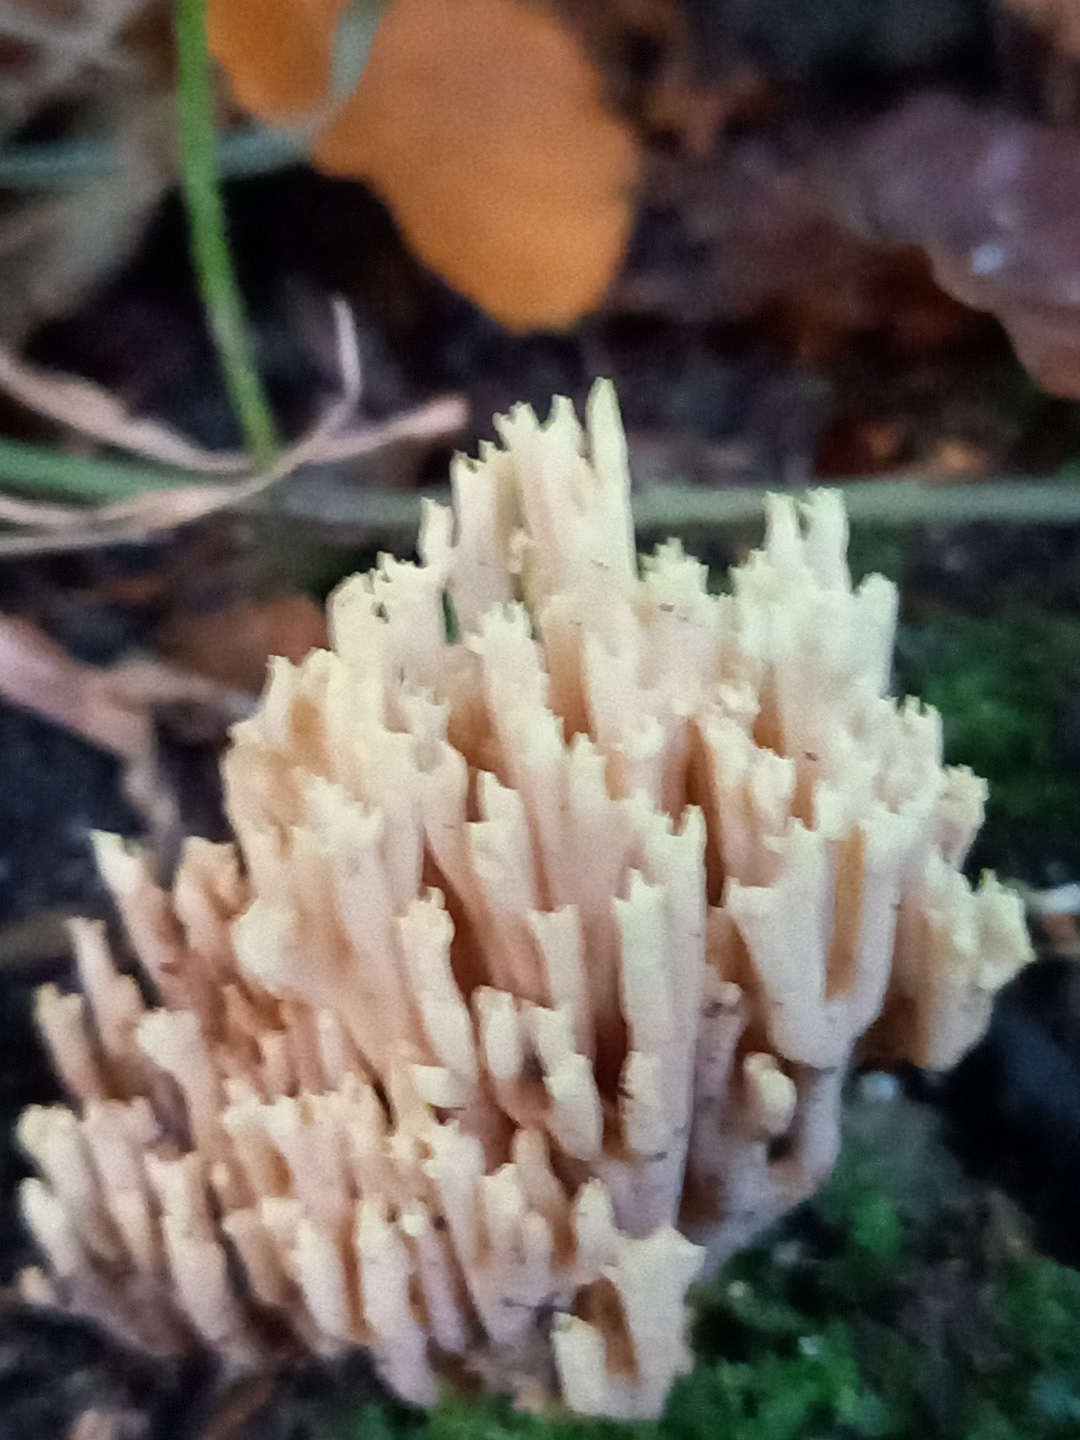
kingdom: Fungi
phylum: Basidiomycota
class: Agaricomycetes
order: Gomphales
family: Gomphaceae
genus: Ramaria
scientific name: Ramaria stricta
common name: rank koralsvamp
